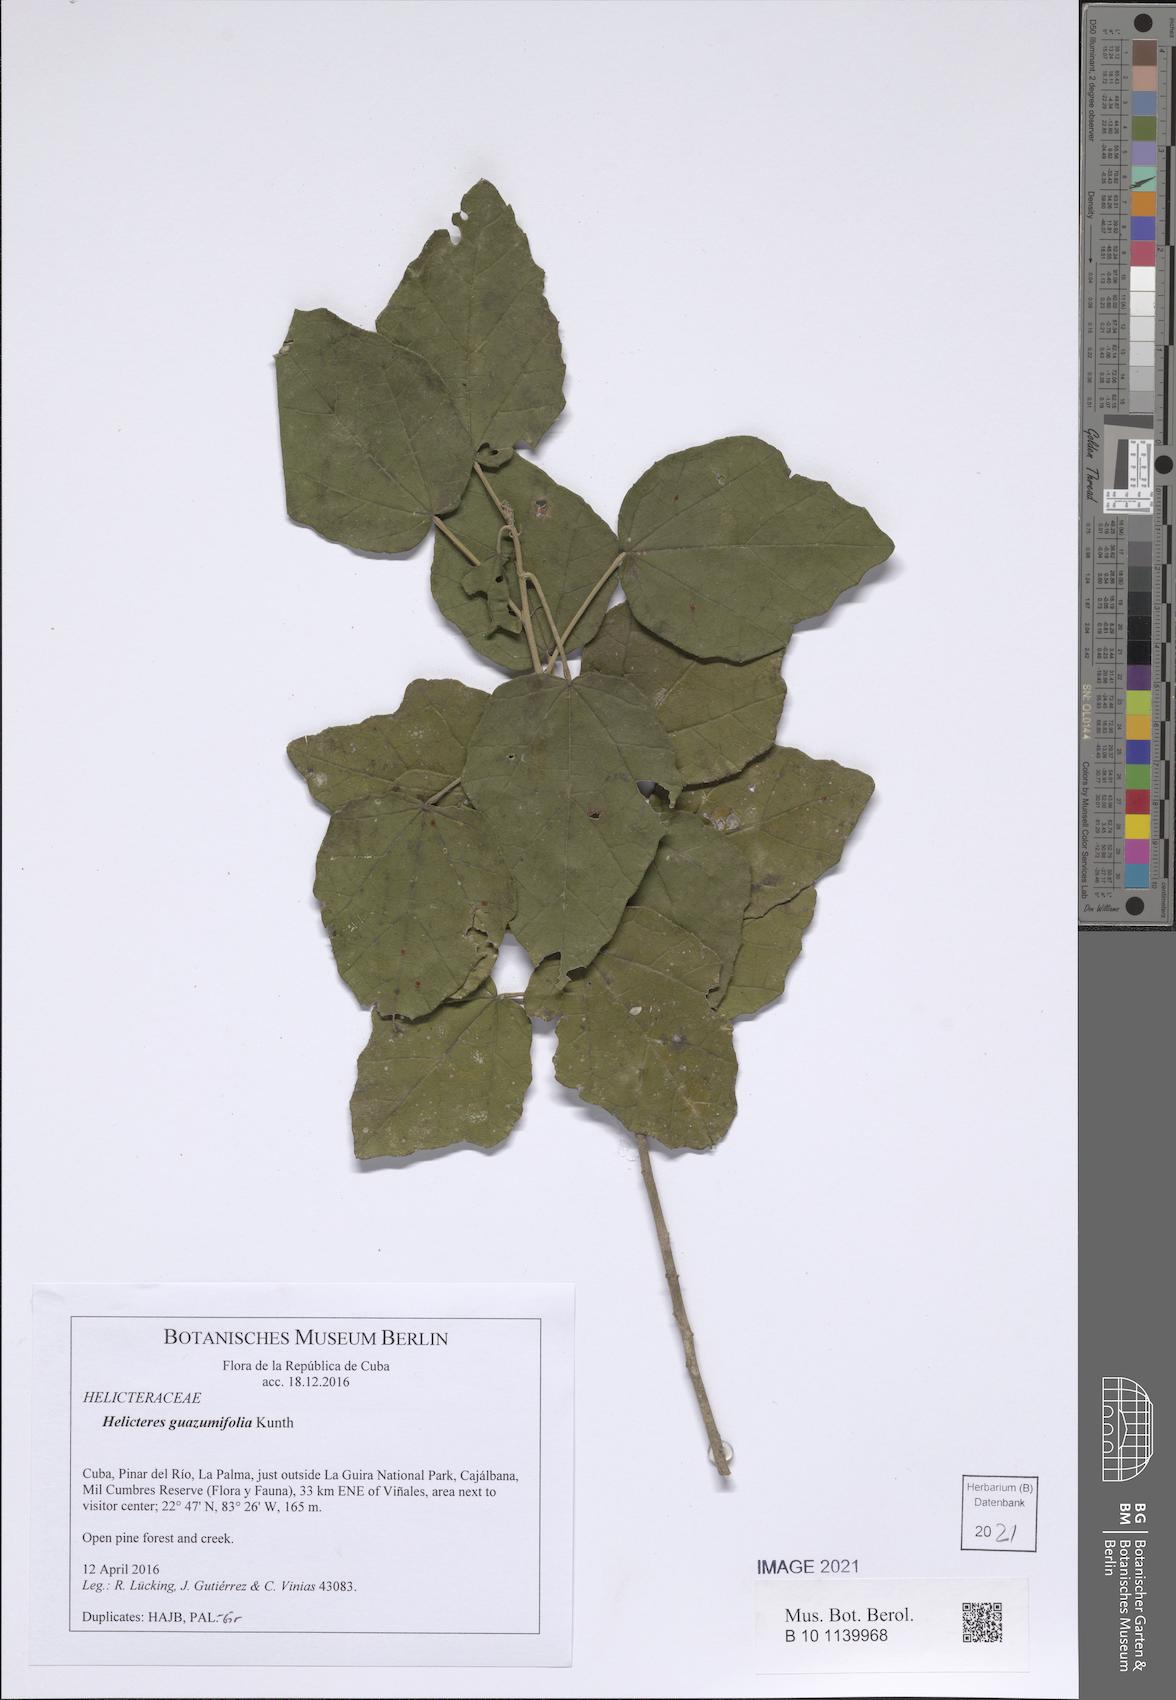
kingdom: Plantae
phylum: Tracheophyta
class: Magnoliopsida
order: Malvales
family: Malvaceae
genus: Helicteres
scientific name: Helicteres trapezifolia
